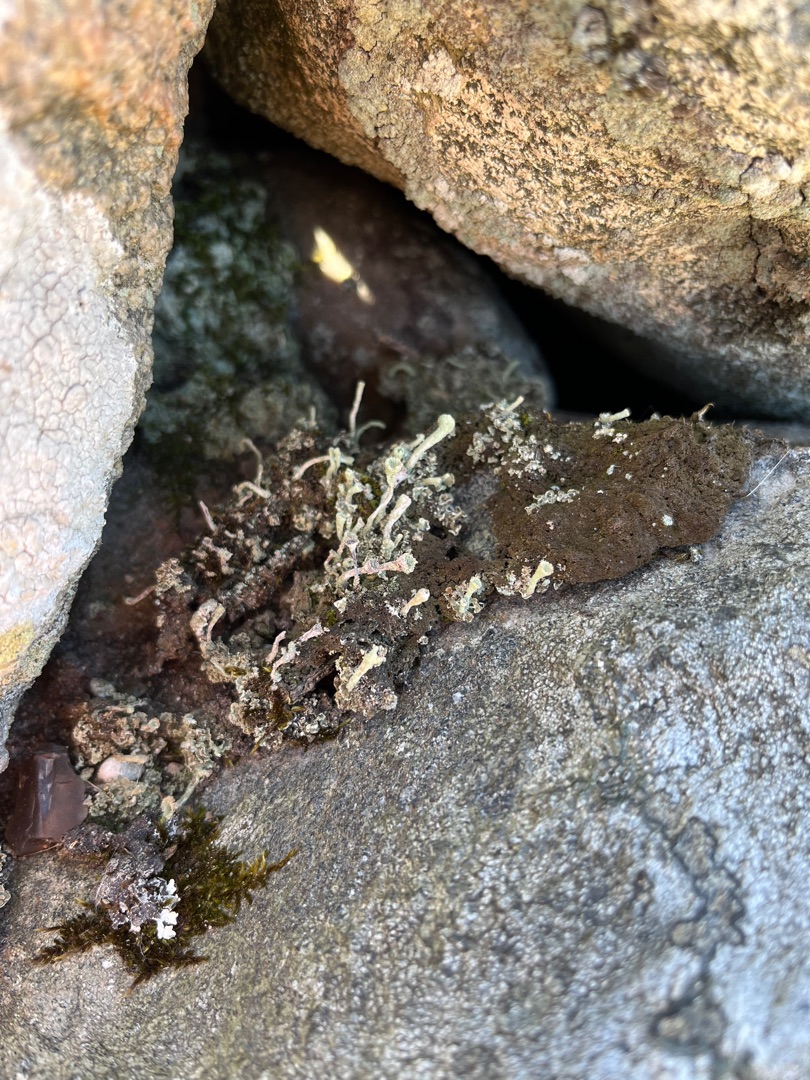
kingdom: Fungi
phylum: Ascomycota
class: Lecanoromycetes
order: Lecanorales
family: Cladoniaceae
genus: Cladonia
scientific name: Cladonia
